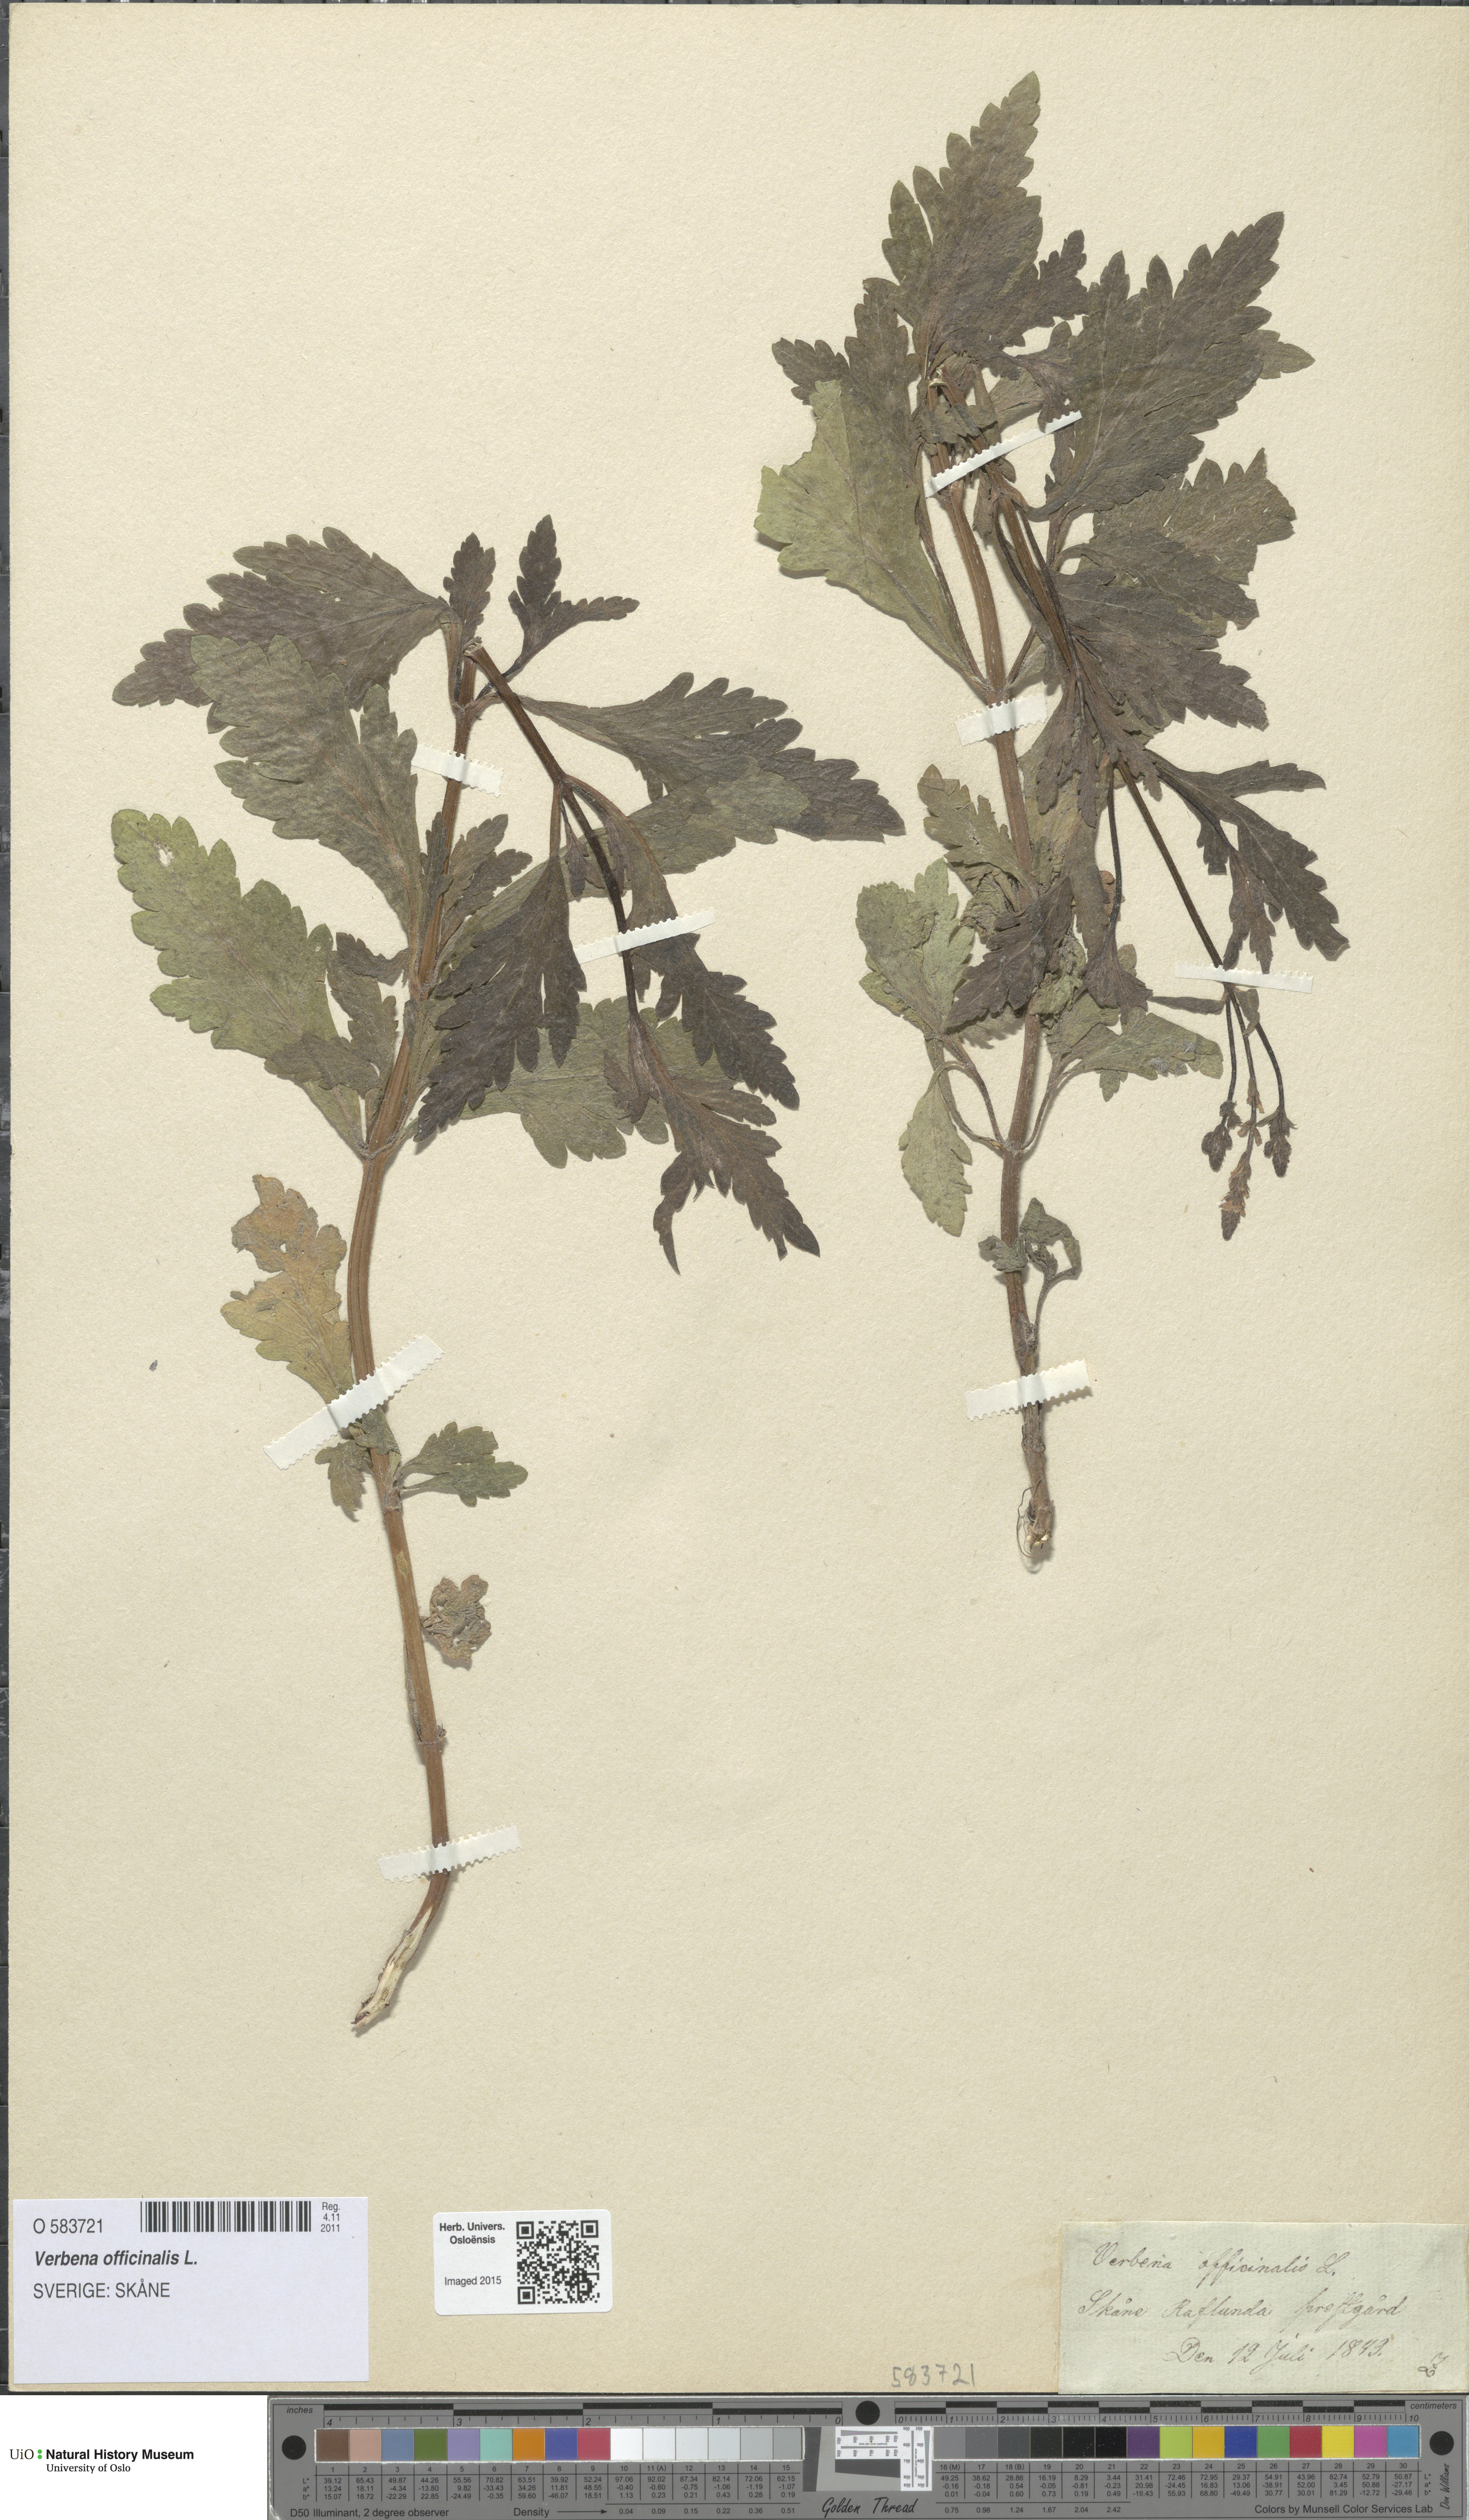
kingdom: Plantae
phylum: Tracheophyta
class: Magnoliopsida
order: Lamiales
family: Verbenaceae
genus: Verbena
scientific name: Verbena officinalis
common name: Vervain
